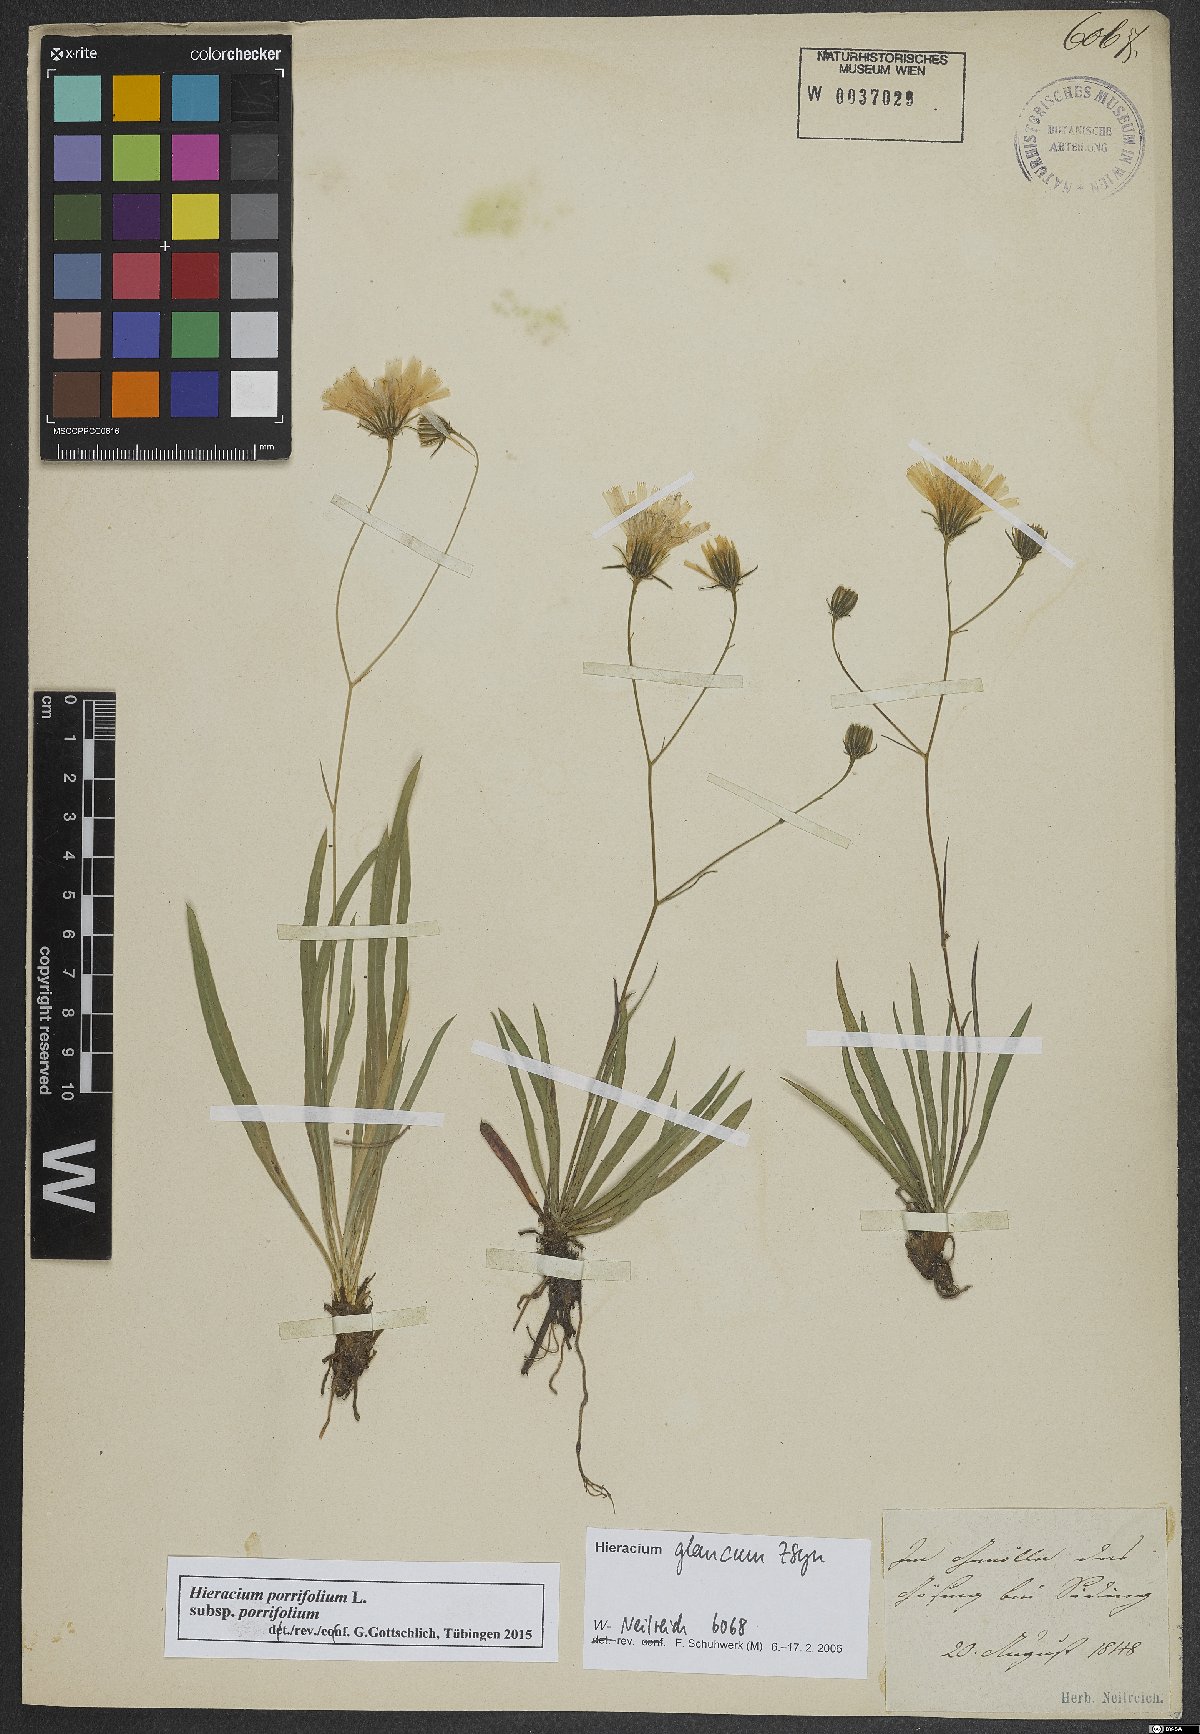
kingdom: Plantae
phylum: Tracheophyta
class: Magnoliopsida
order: Asterales
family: Asteraceae
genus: Hieracium
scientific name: Hieracium porrifolium
